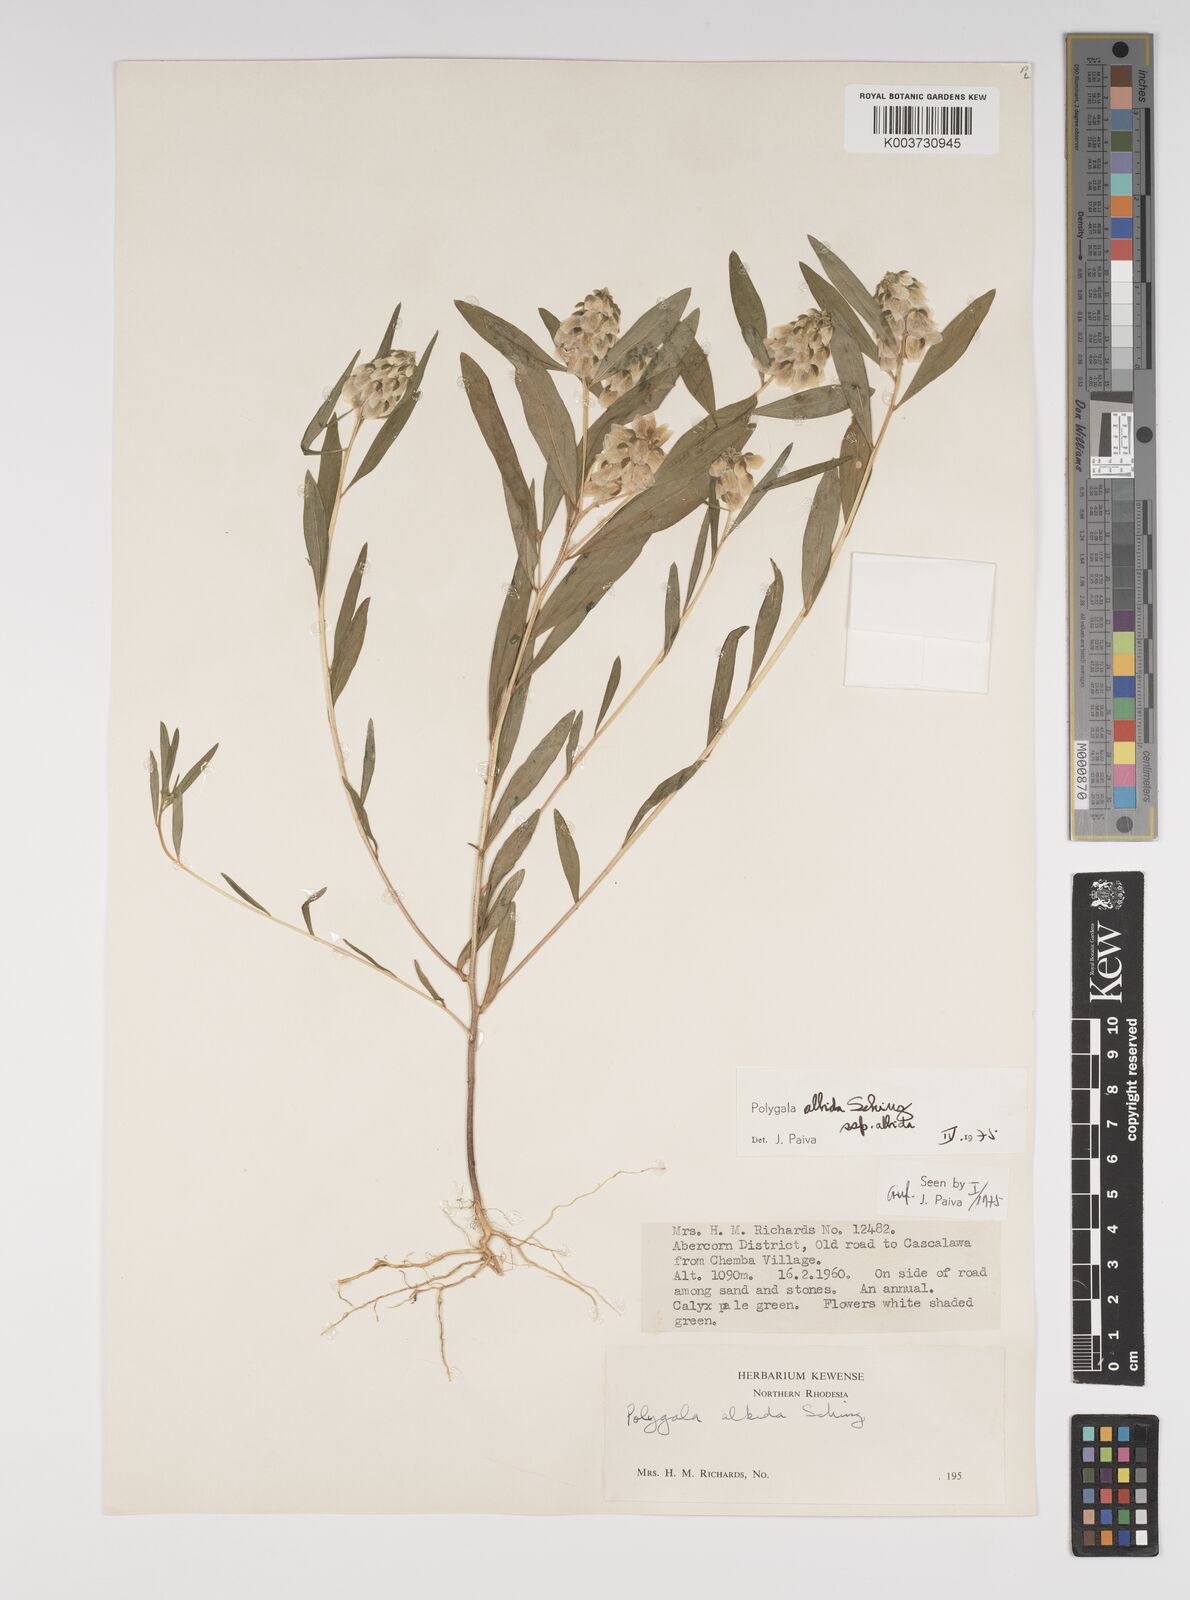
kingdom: Plantae
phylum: Tracheophyta
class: Magnoliopsida
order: Fabales
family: Polygalaceae
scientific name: Polygalaceae
